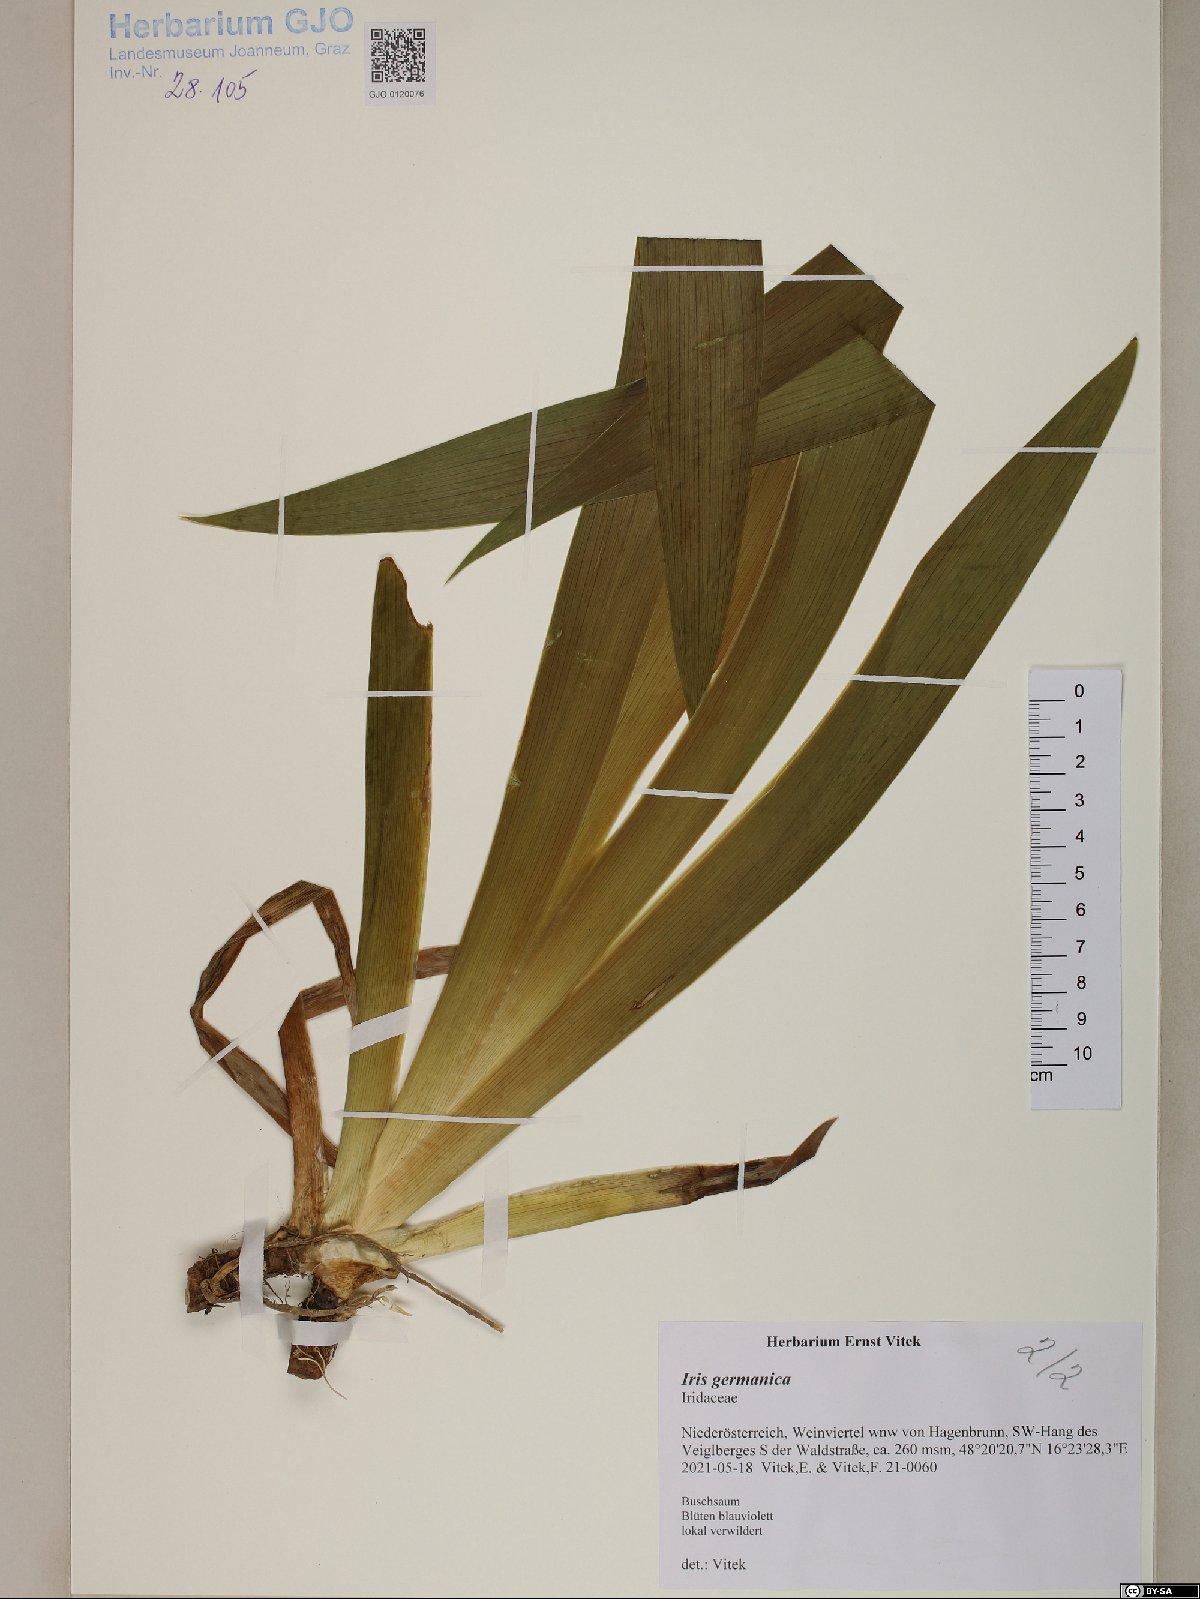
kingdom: Plantae
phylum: Tracheophyta
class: Liliopsida
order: Asparagales
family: Iridaceae
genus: Iris
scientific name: Iris germanica
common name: German iris
